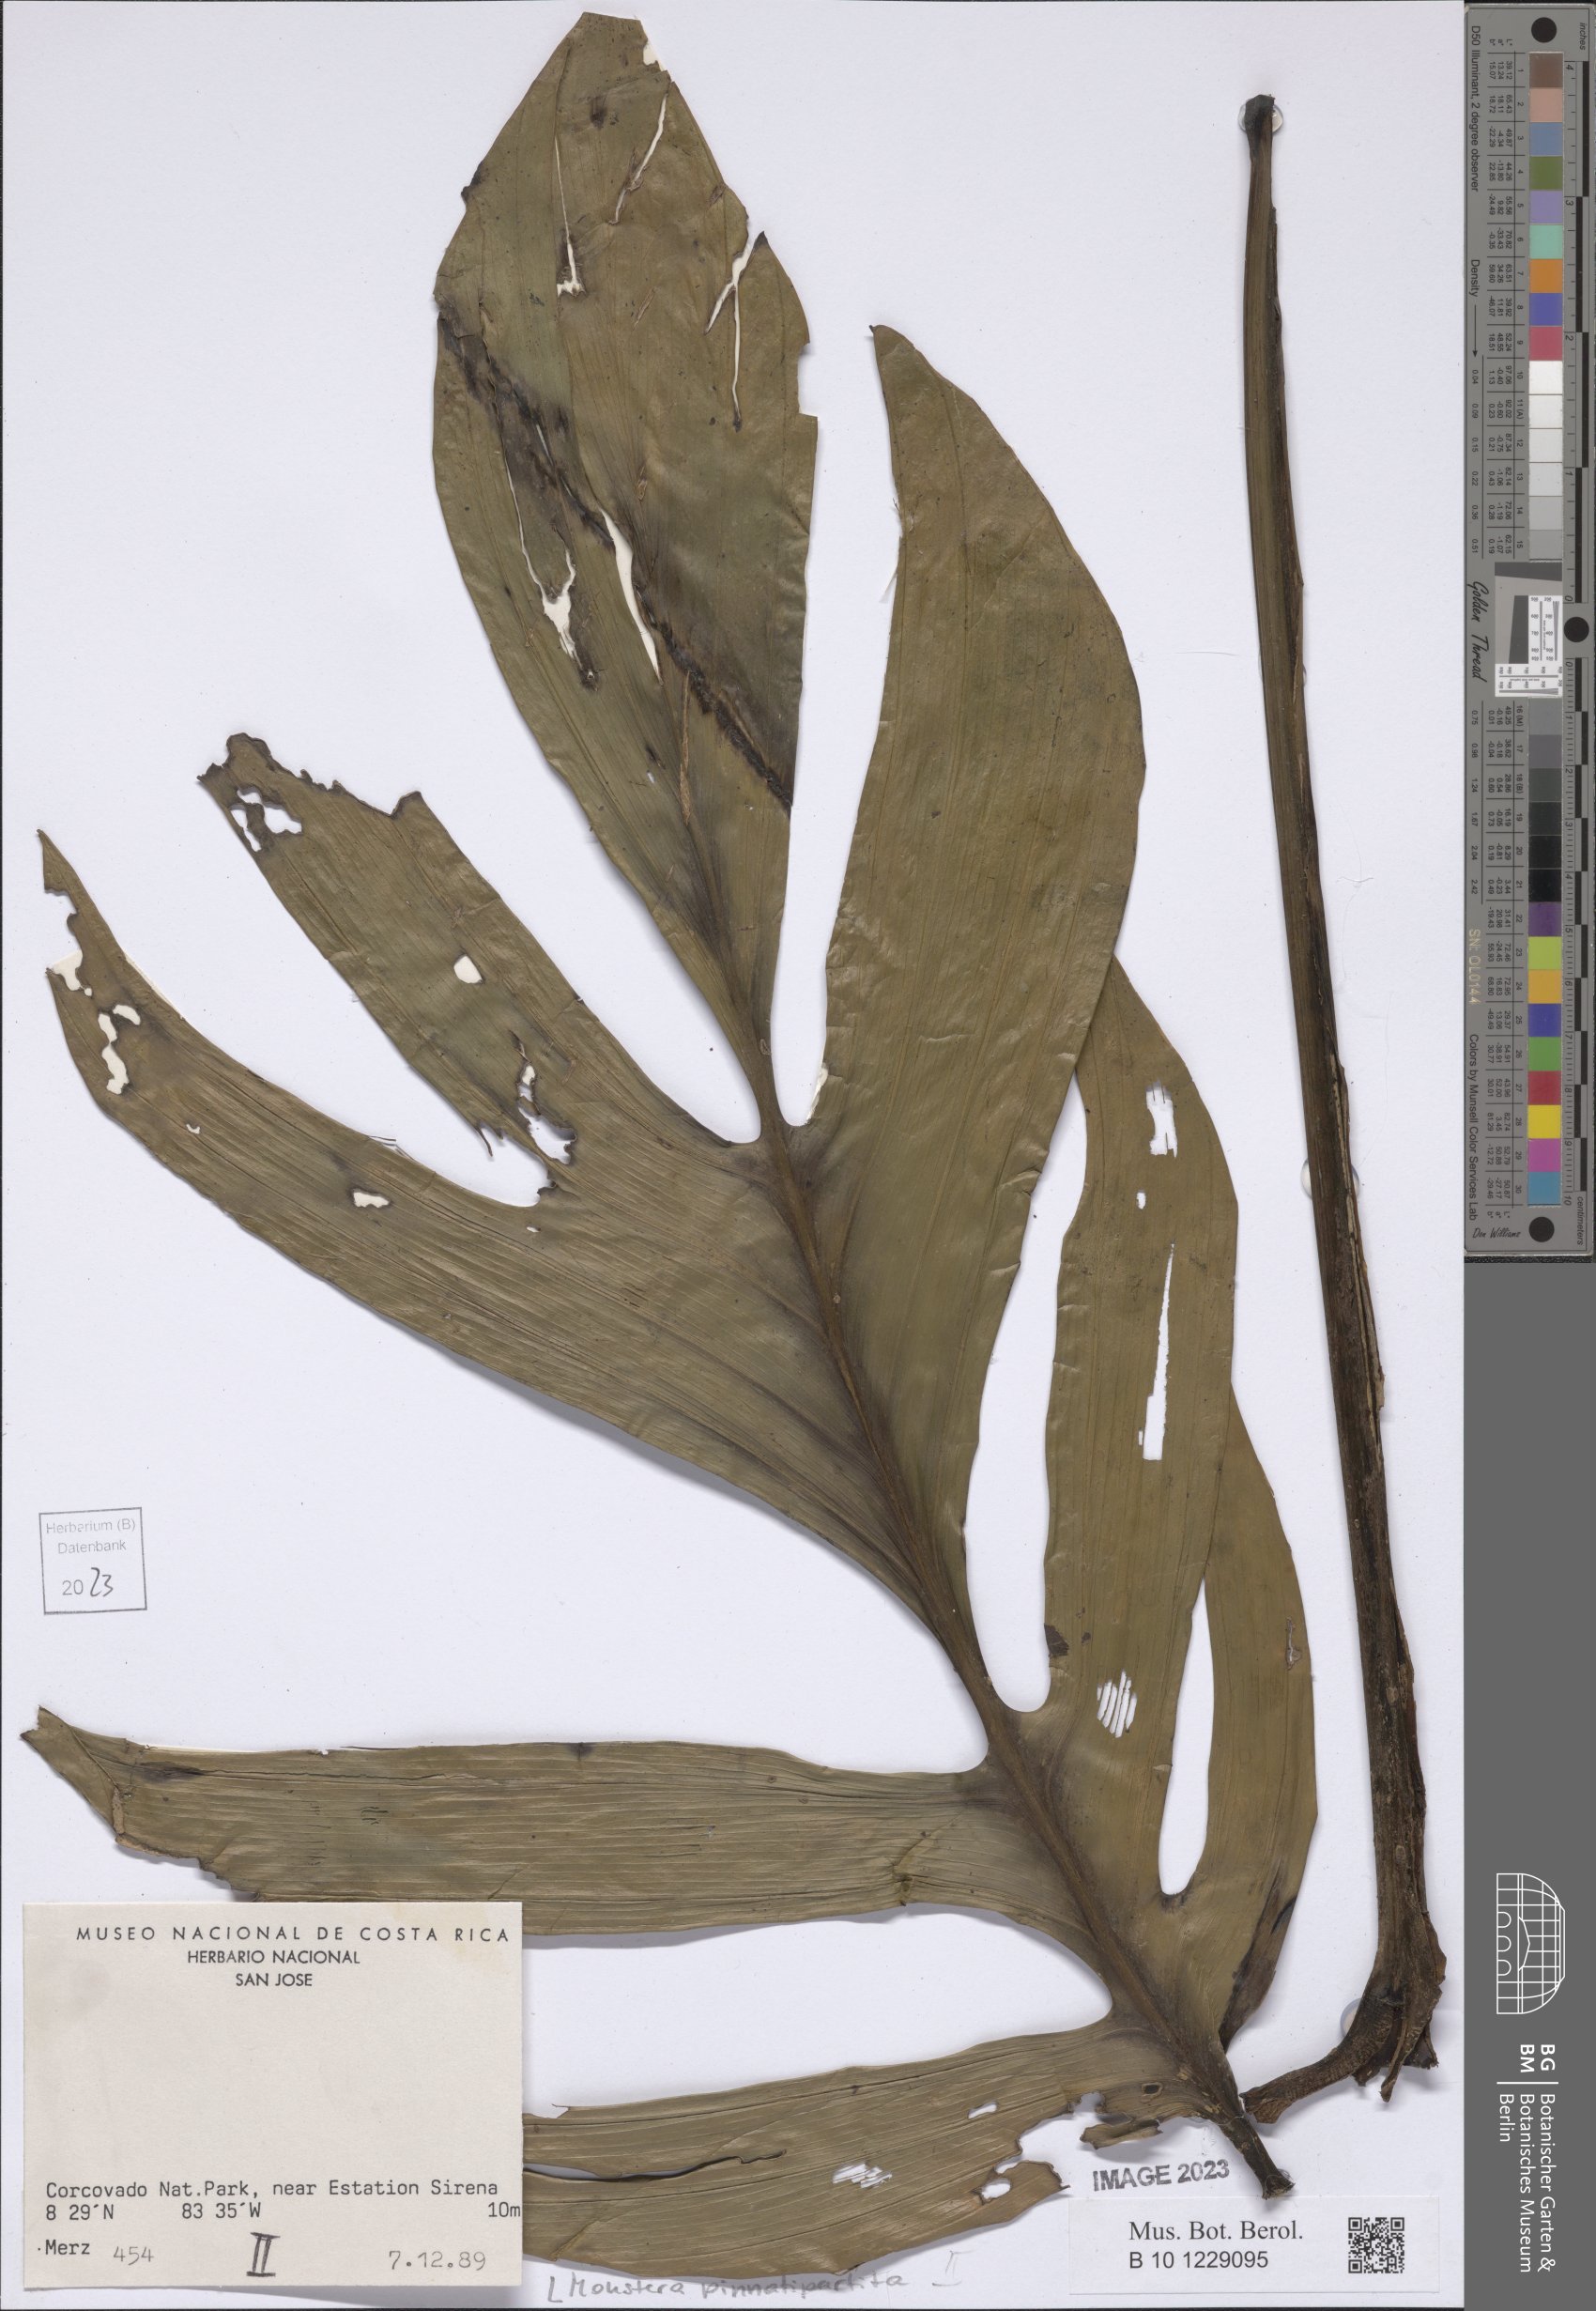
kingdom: Plantae
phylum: Tracheophyta
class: Liliopsida
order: Alismatales
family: Araceae
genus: Monstera
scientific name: Monstera pinnatipartita
